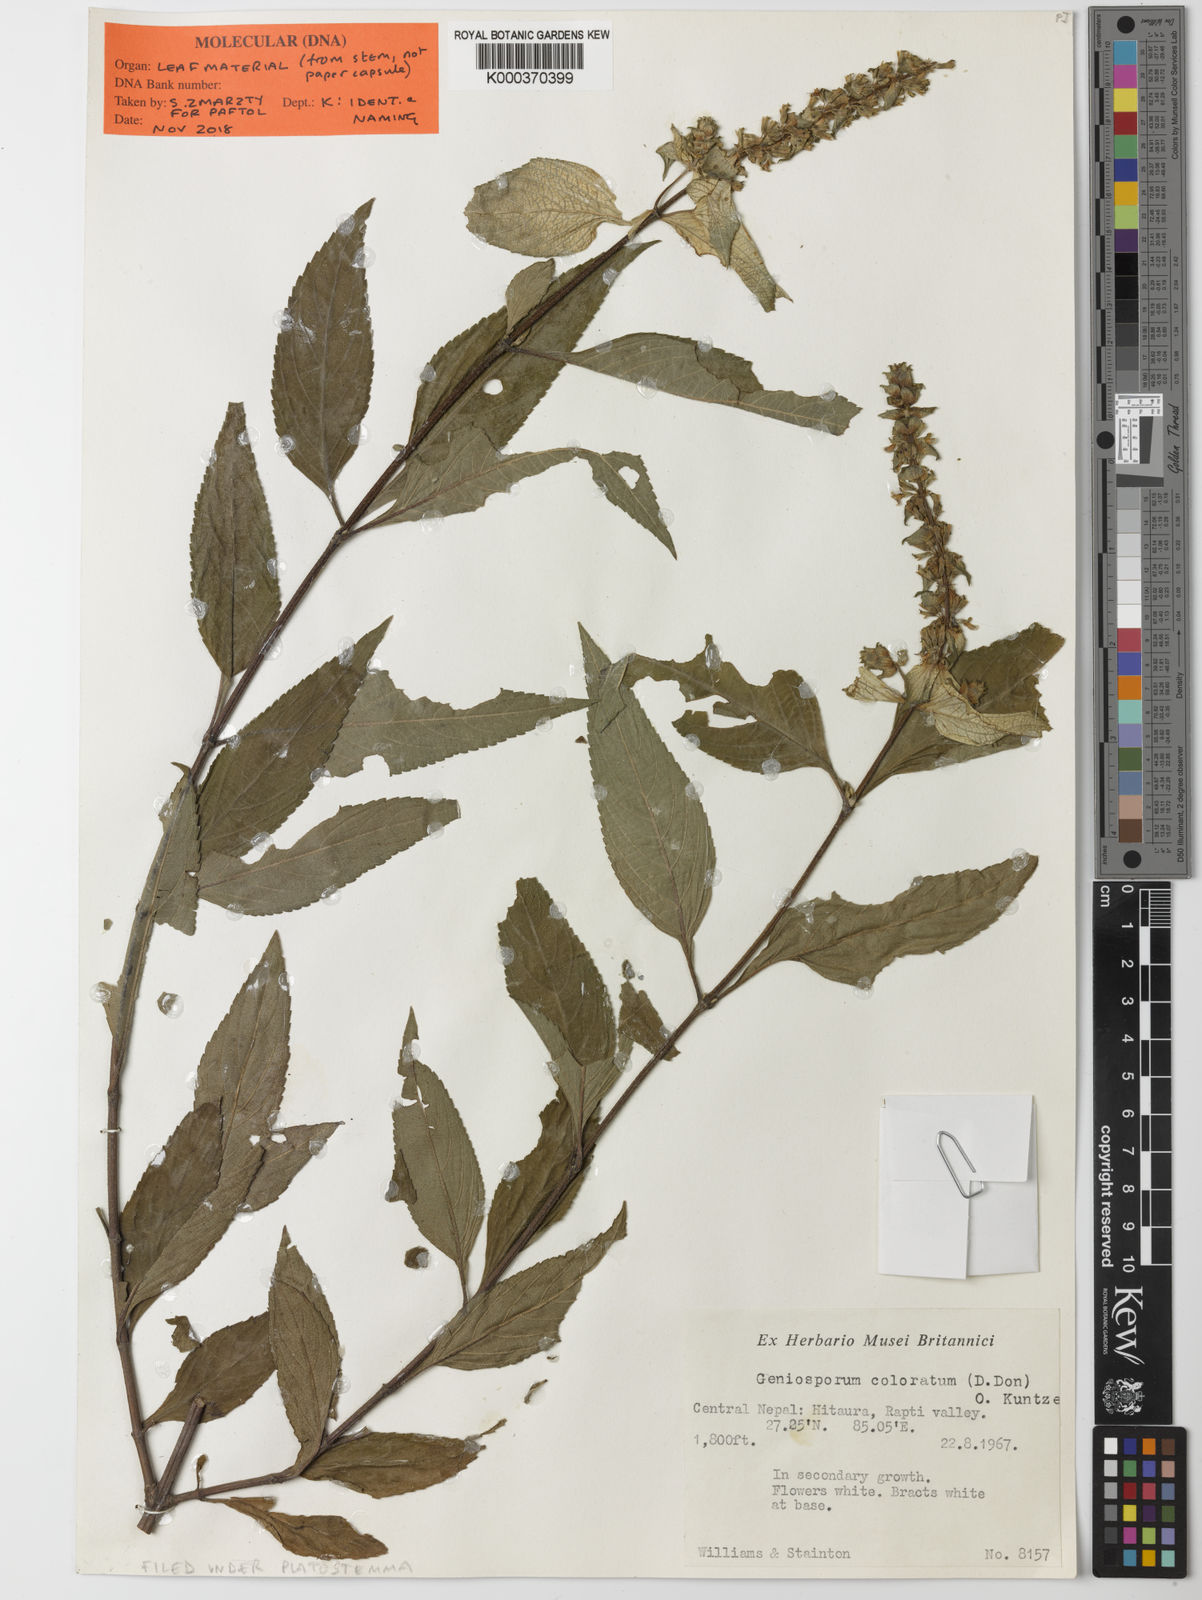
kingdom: Plantae
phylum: Tracheophyta
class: Magnoliopsida
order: Lamiales
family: Lamiaceae
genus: Platostoma
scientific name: Platostoma coloratum
